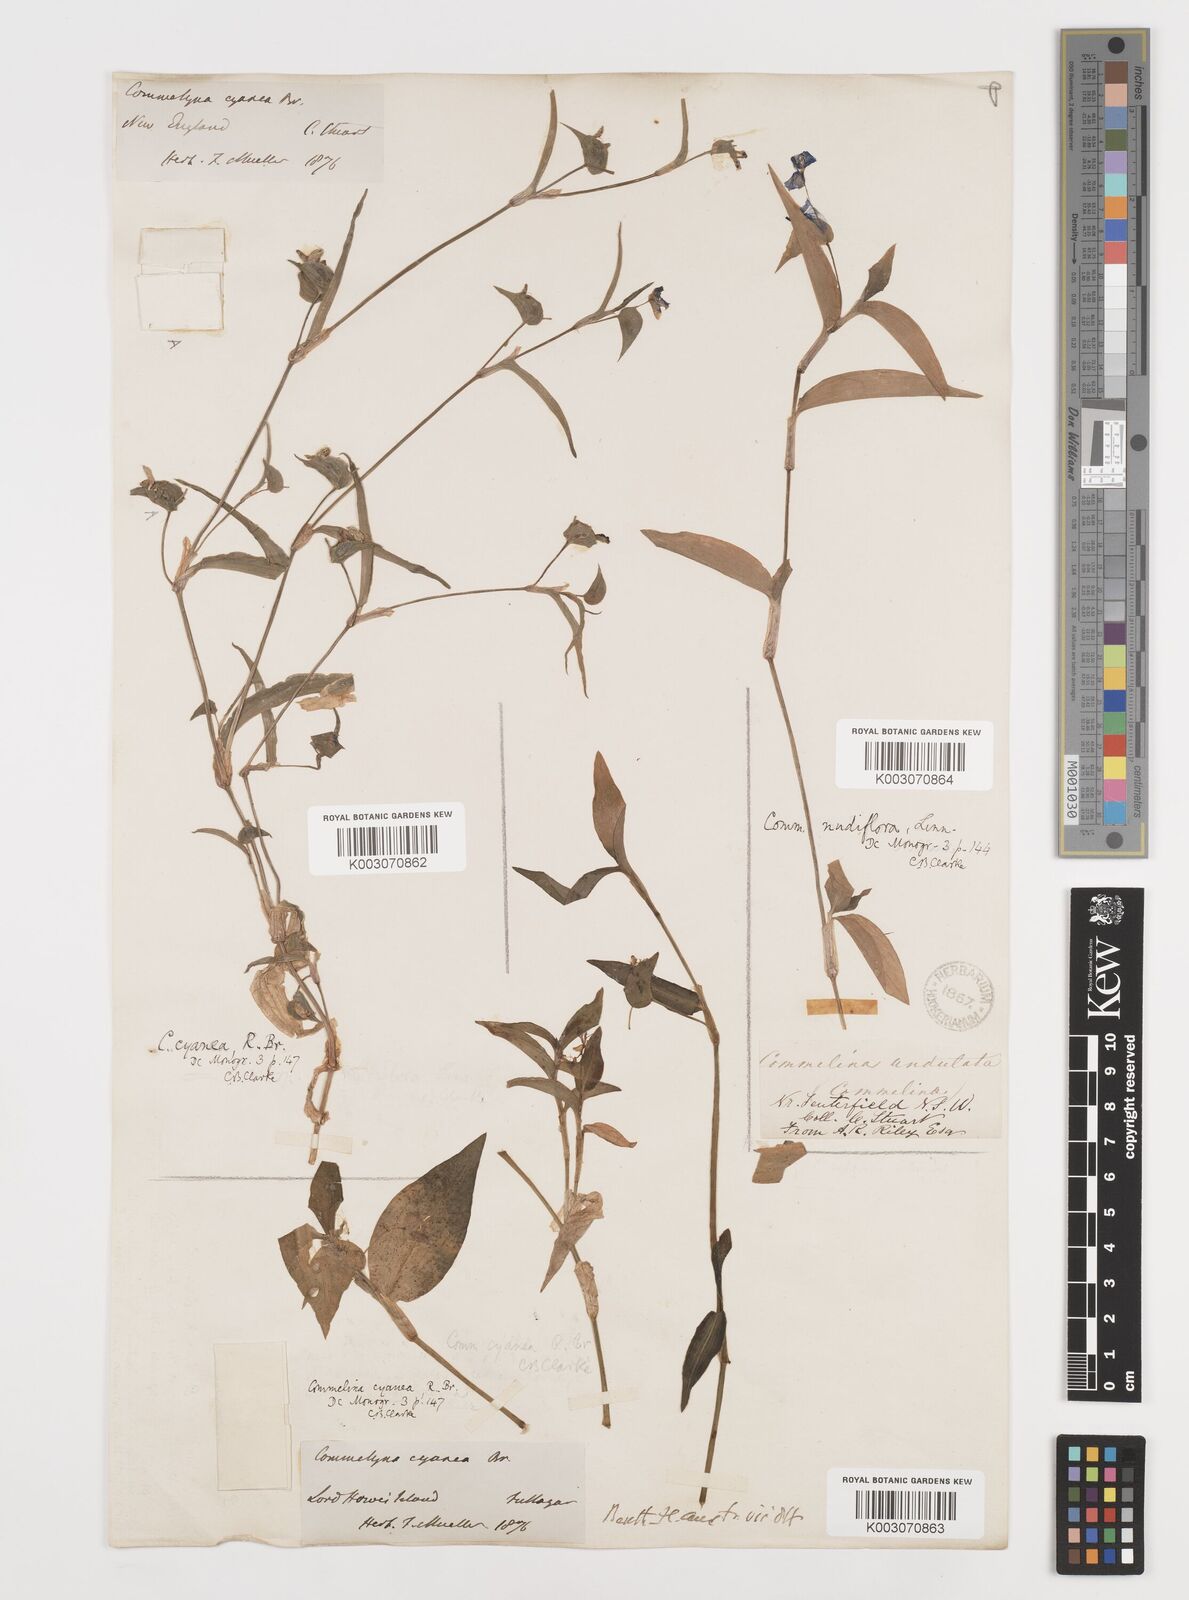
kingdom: Plantae
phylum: Tracheophyta
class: Liliopsida
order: Commelinales
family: Commelinaceae
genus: Commelina
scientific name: Commelina cyanea
